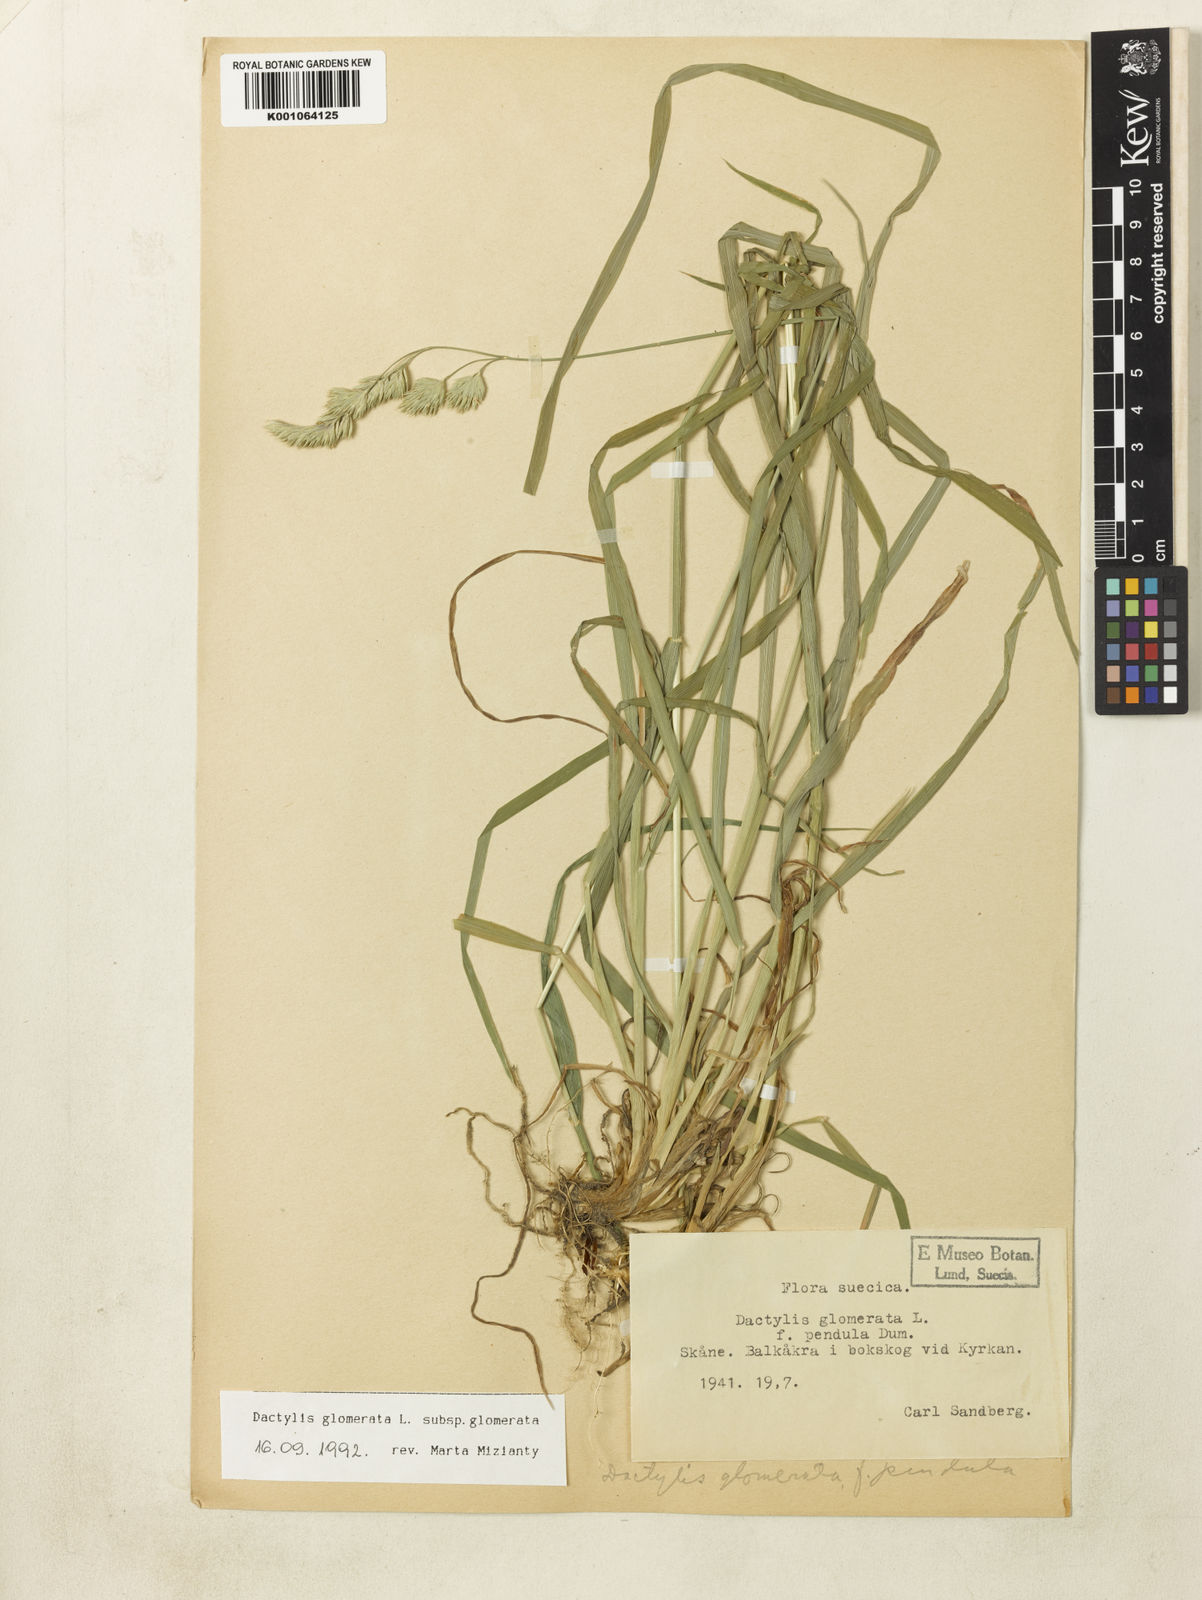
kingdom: Plantae
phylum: Tracheophyta
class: Liliopsida
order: Poales
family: Poaceae
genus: Dactylis
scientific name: Dactylis glomerata
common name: Orchardgrass
